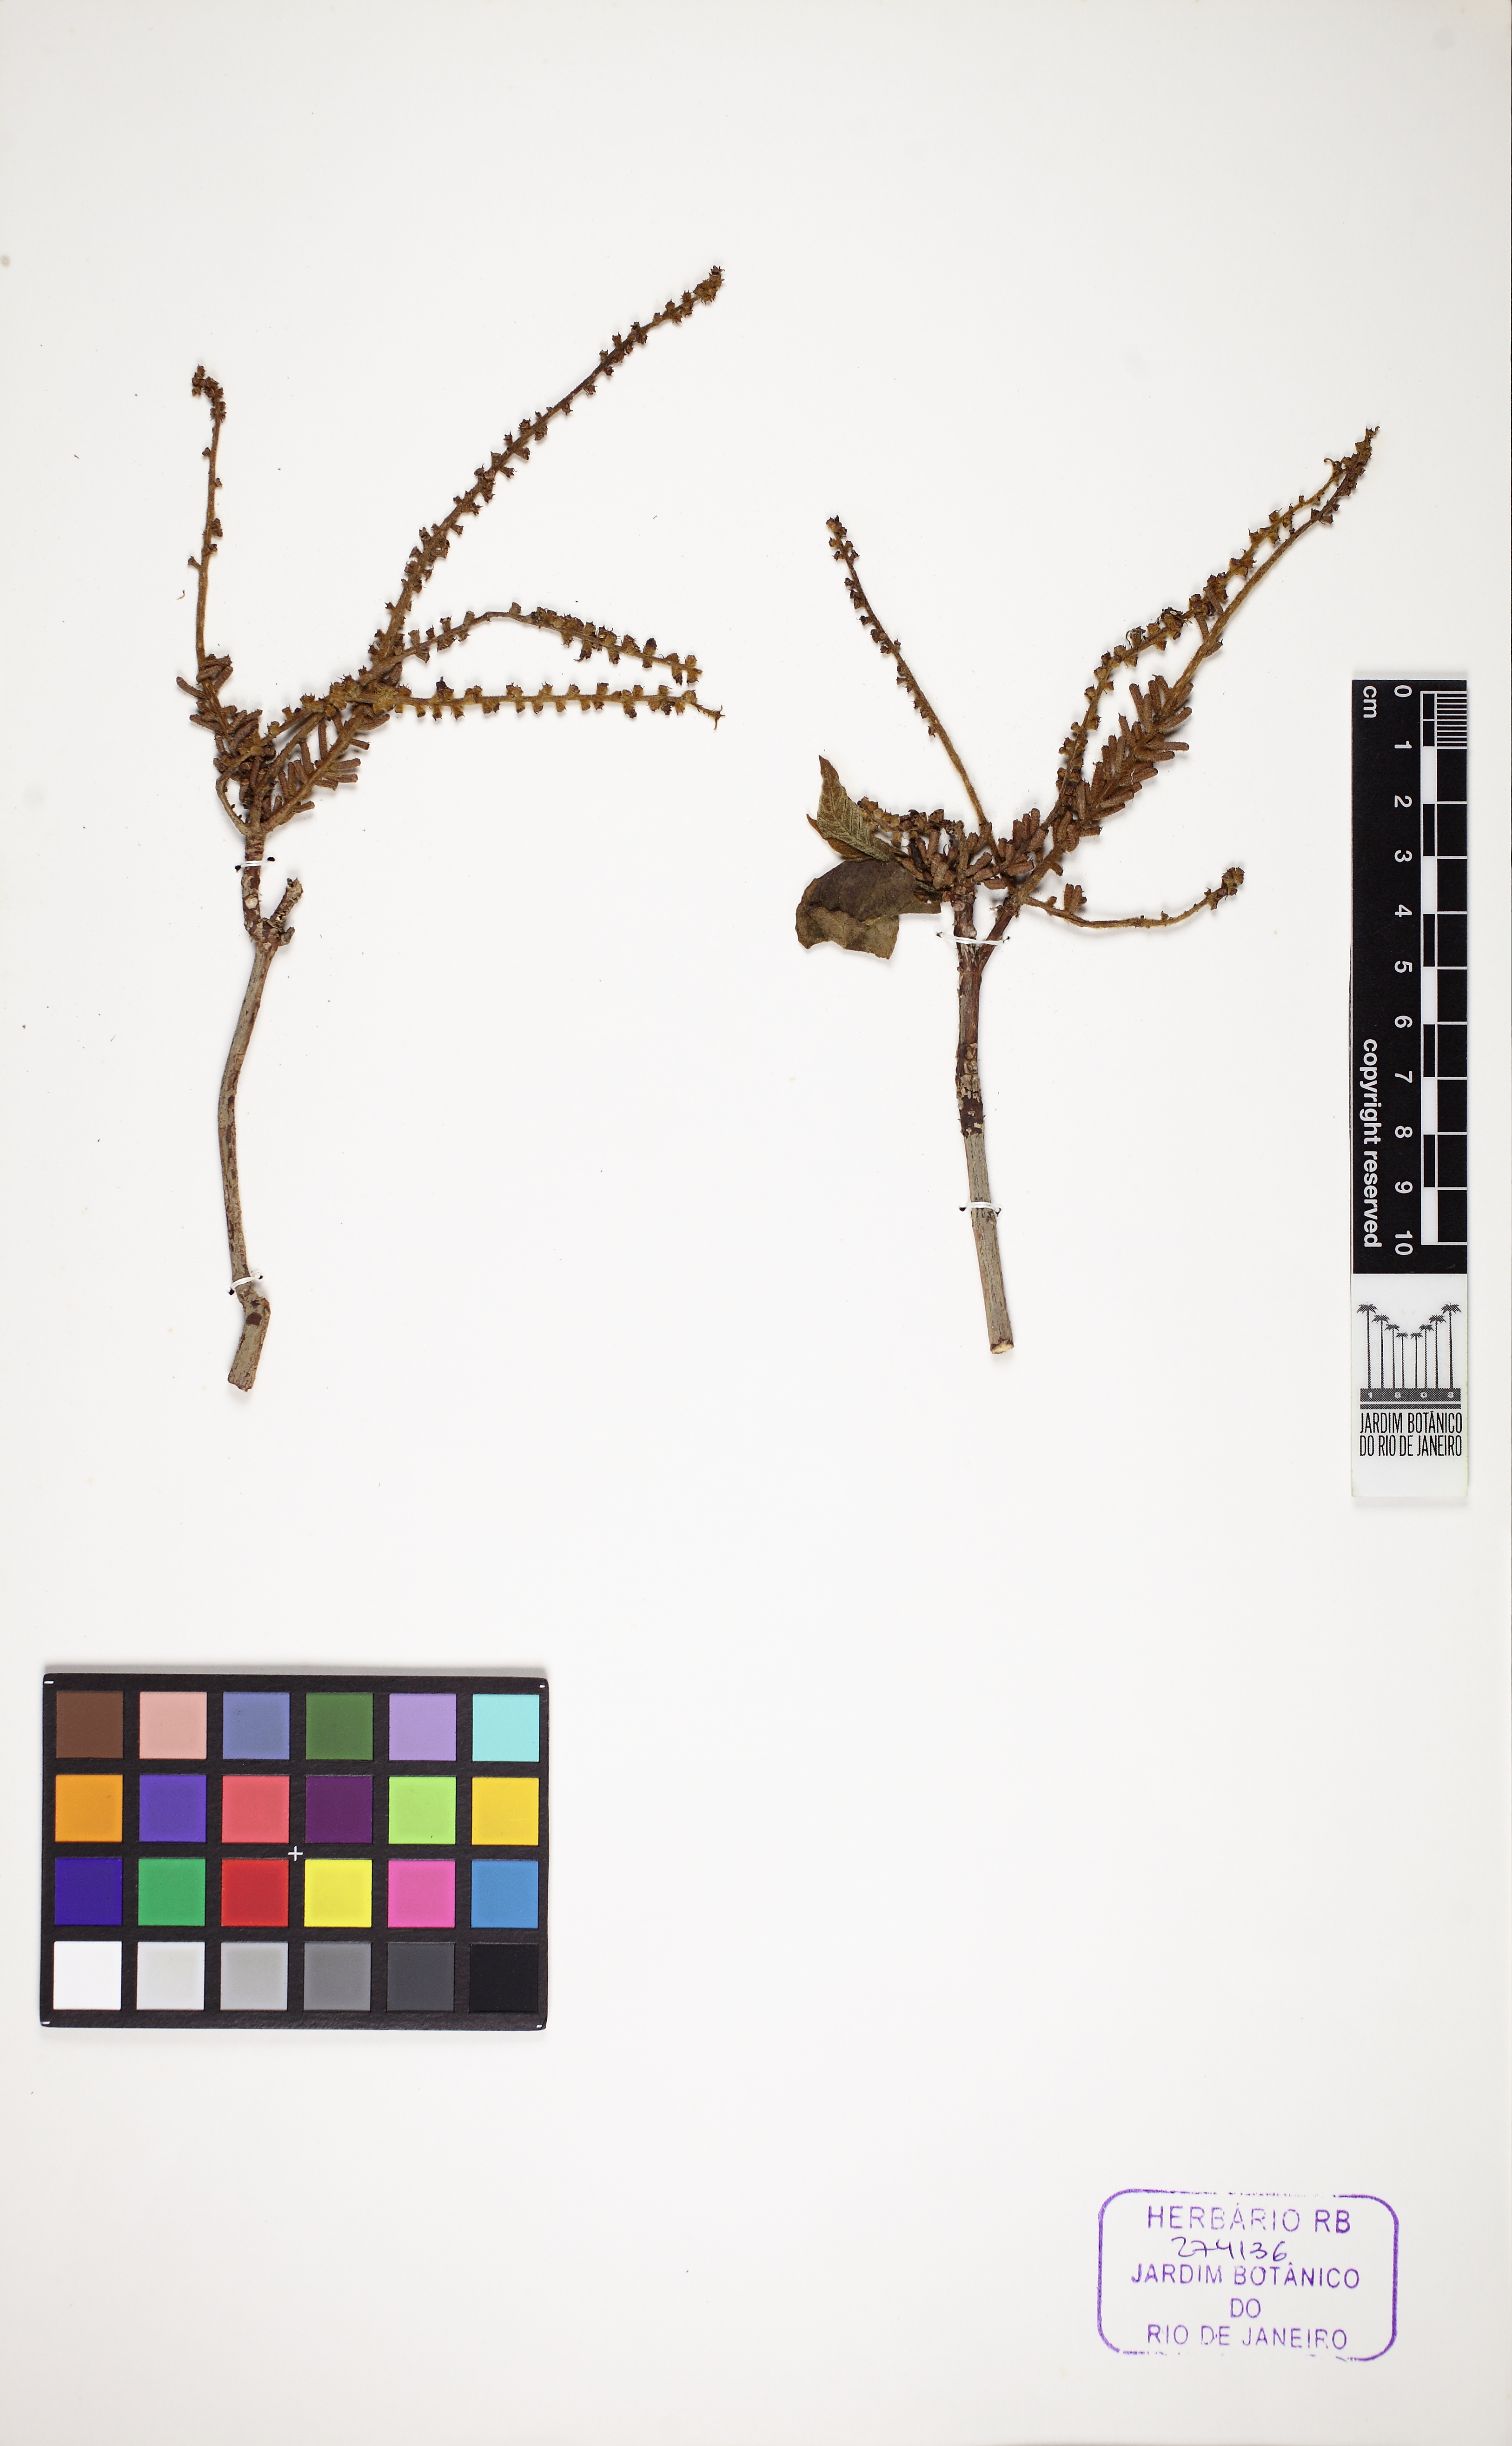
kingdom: Plantae
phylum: Tracheophyta
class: Magnoliopsida
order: Gentianales
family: Rubiaceae
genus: Alseis
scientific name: Alseis floribunda
